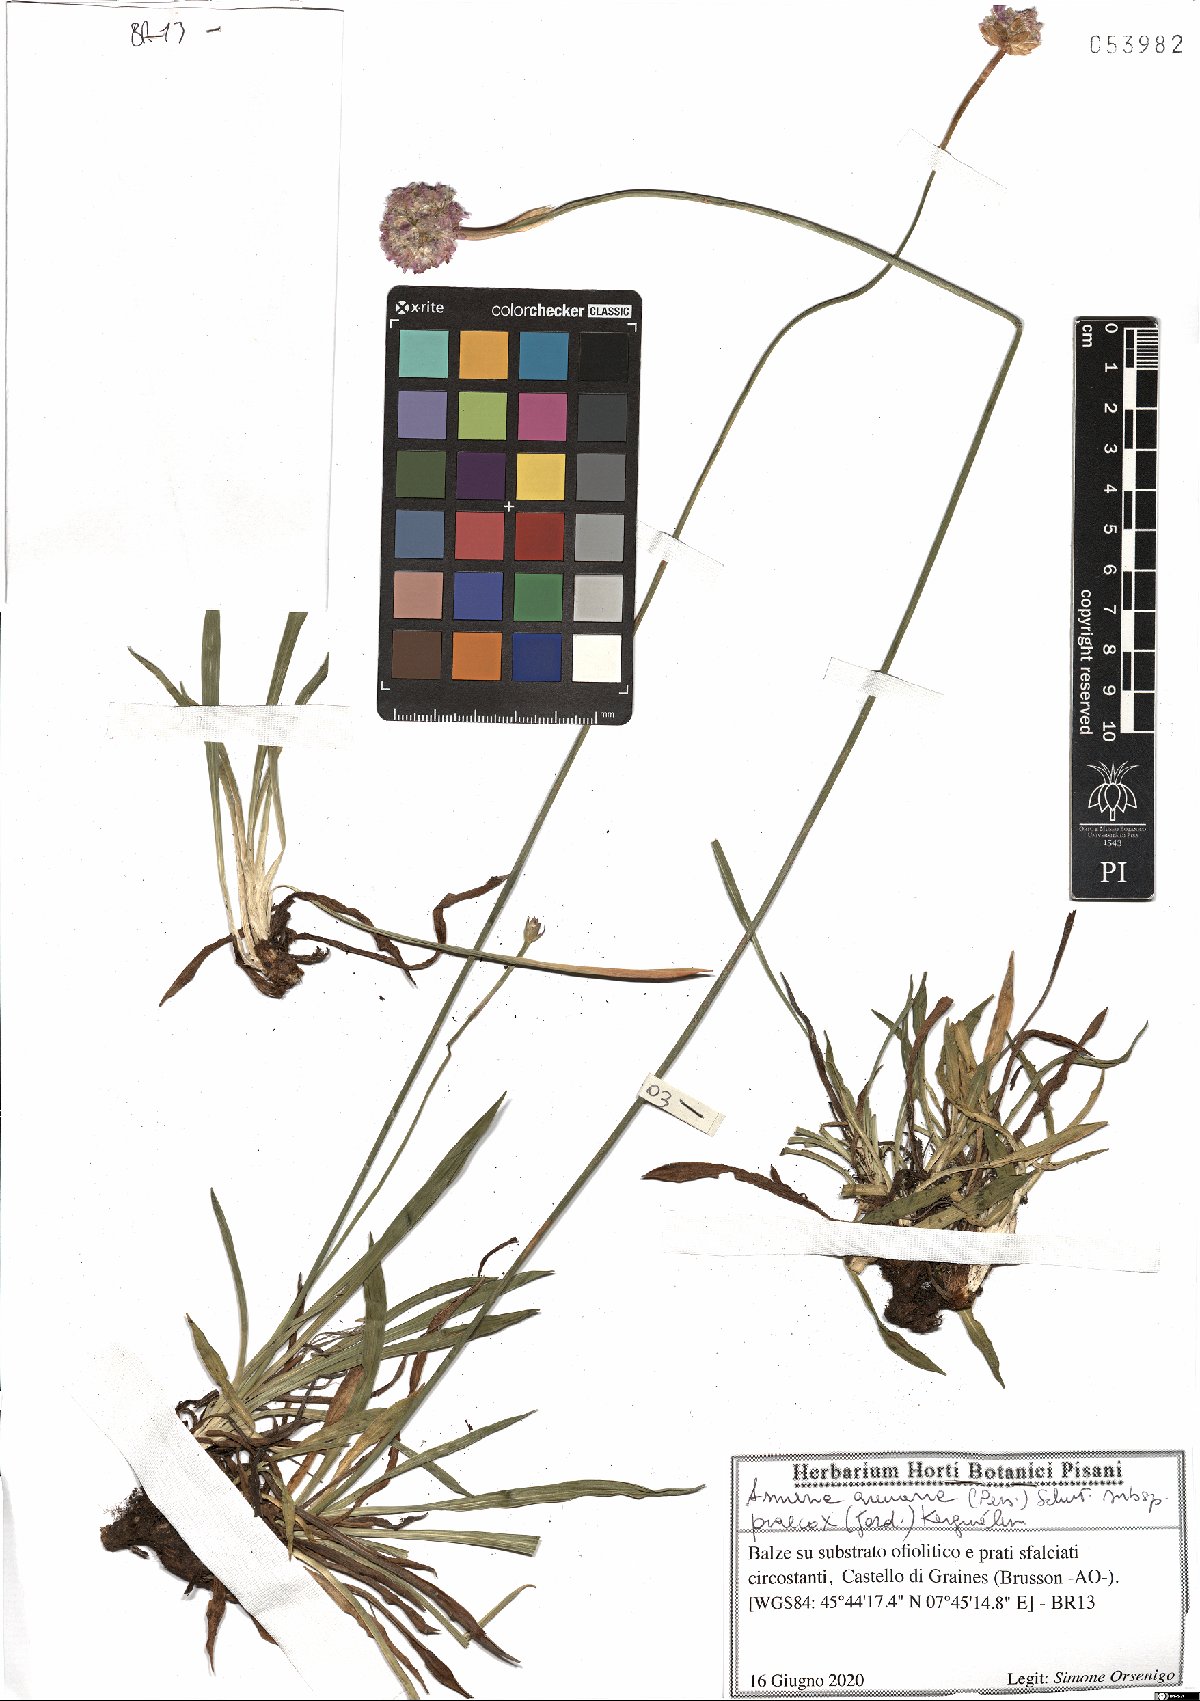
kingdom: Plantae
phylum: Tracheophyta
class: Magnoliopsida
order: Caryophyllales
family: Plumbaginaceae
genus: Armeria
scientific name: Armeria arenaria
